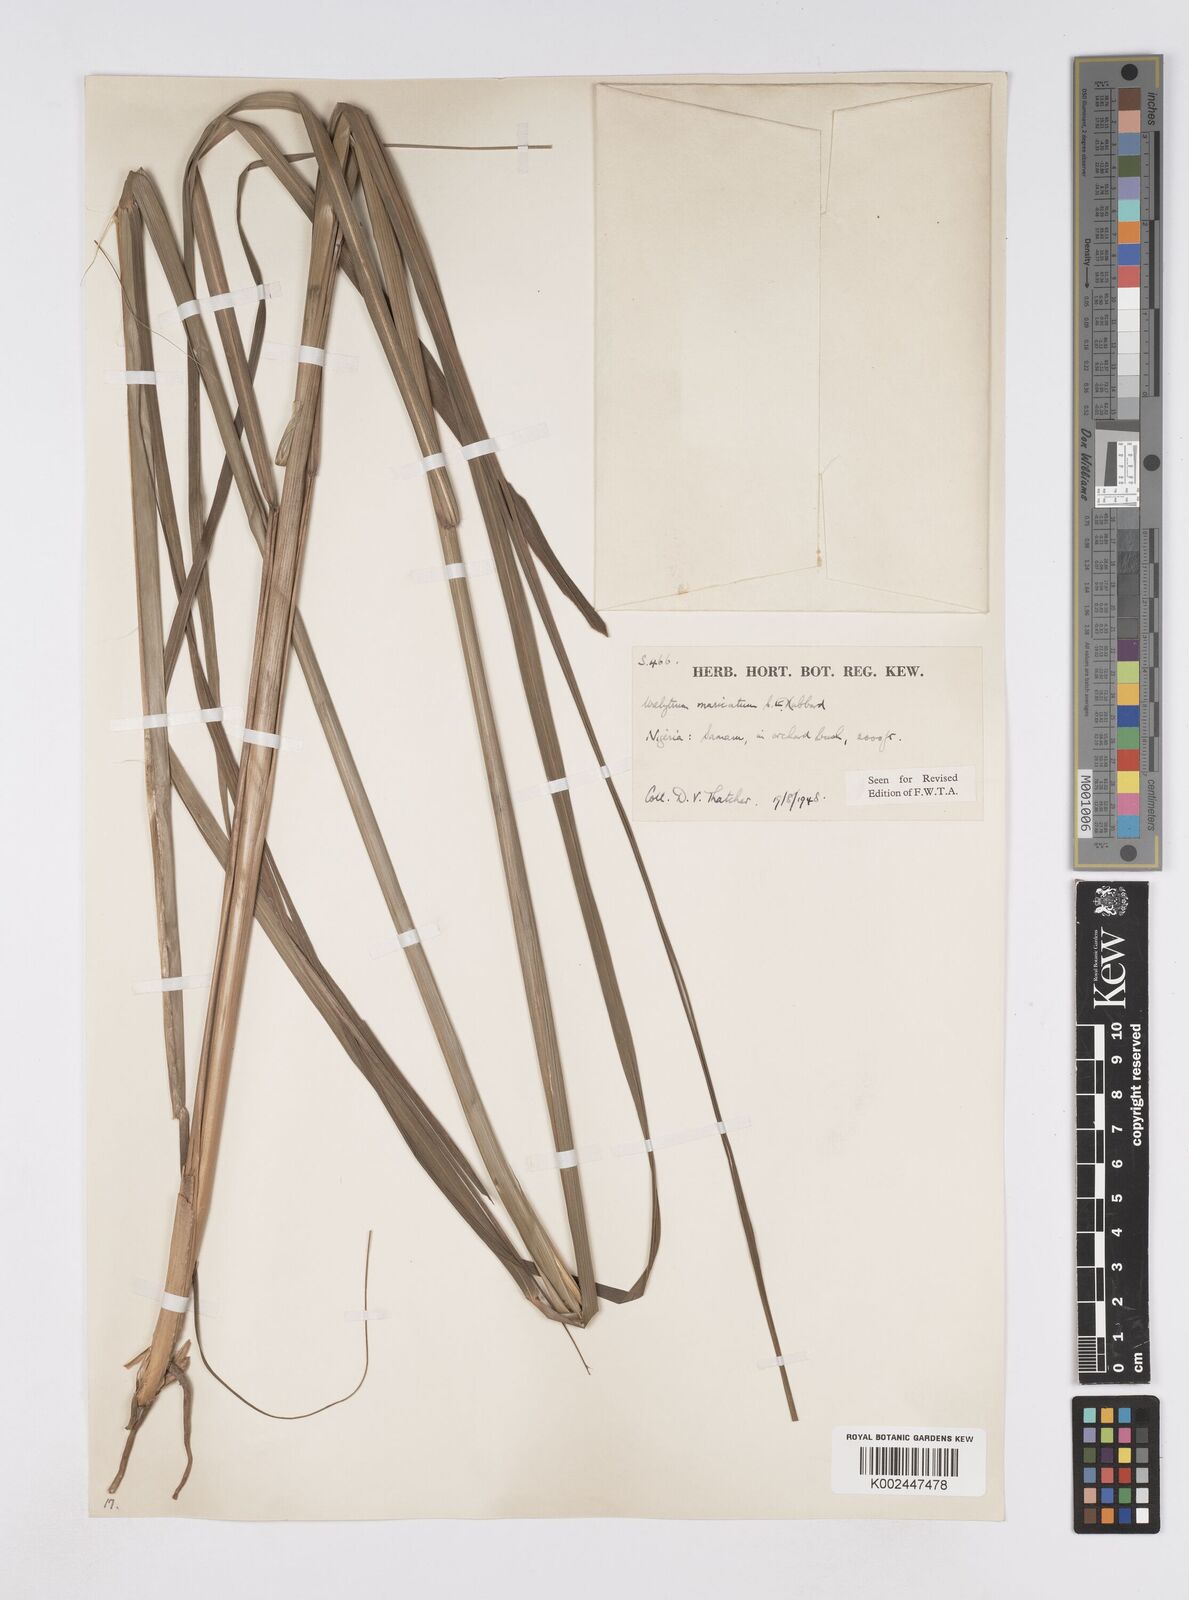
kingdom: Plantae
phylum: Tracheophyta
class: Liliopsida
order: Poales
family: Poaceae
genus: Urelytrum
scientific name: Urelytrum muricatum
